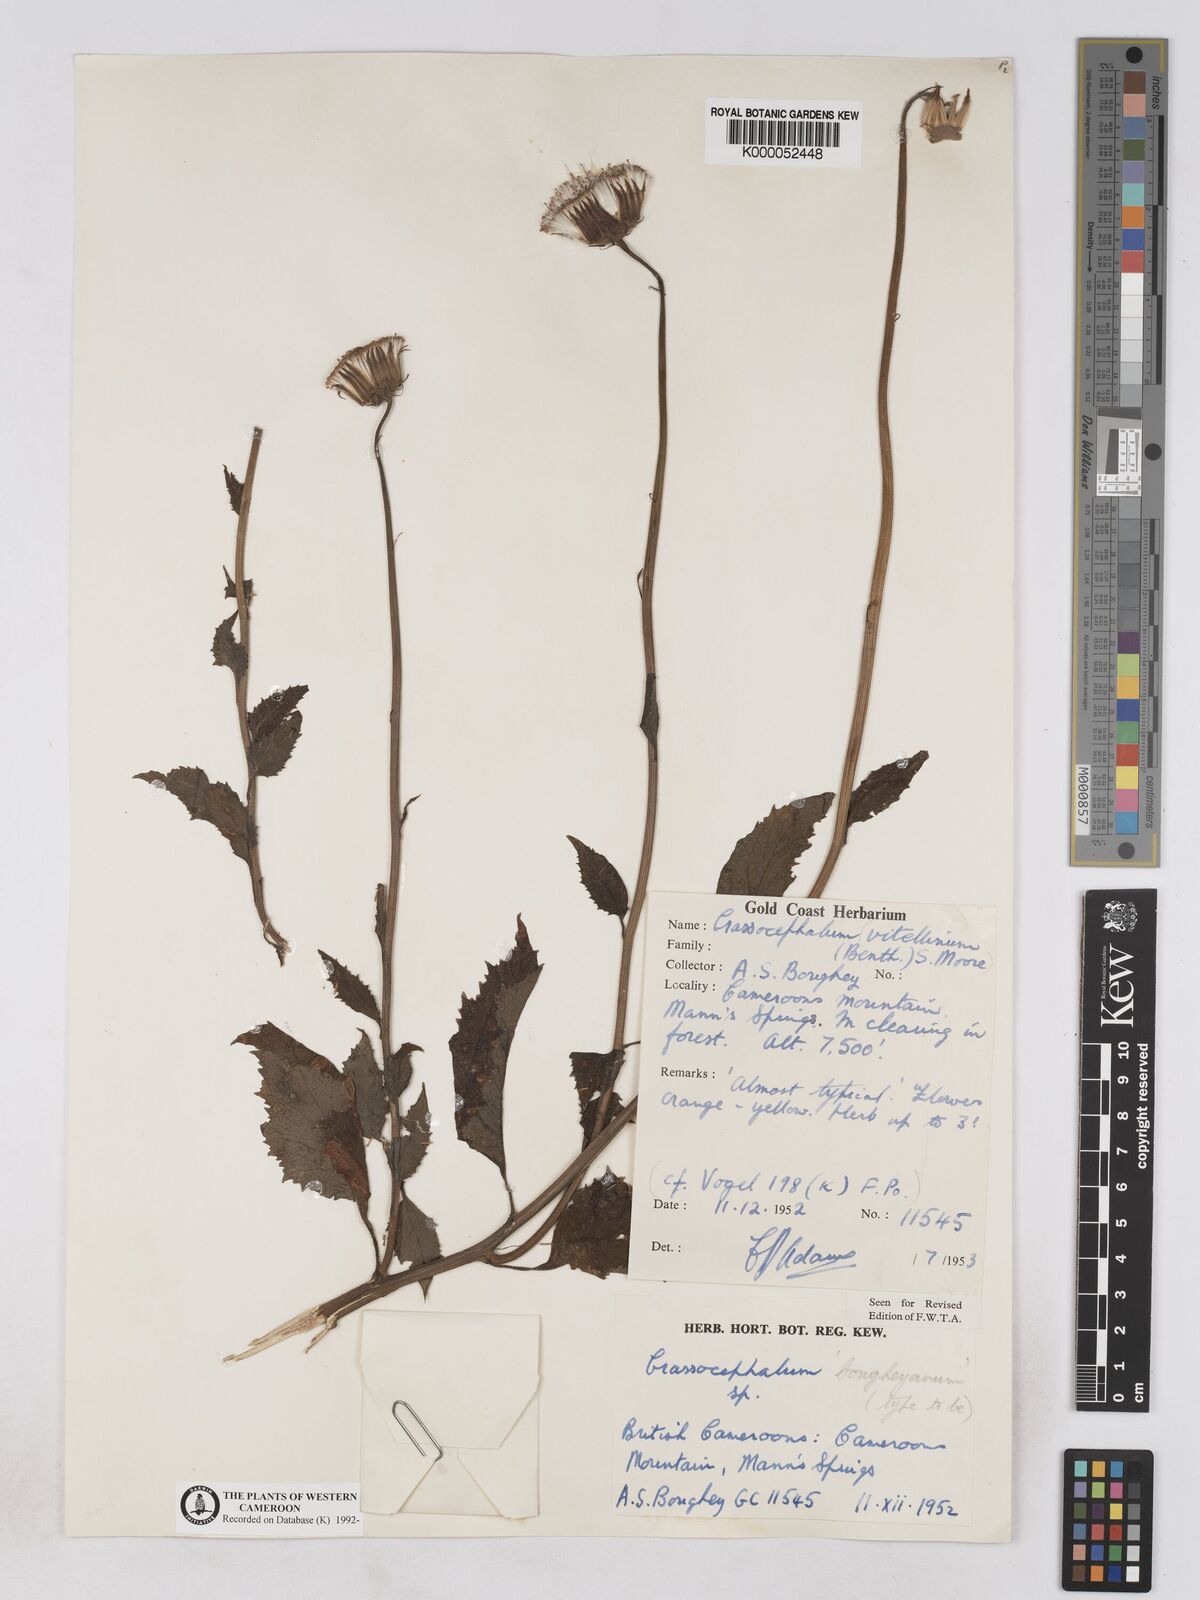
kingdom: Plantae
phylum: Tracheophyta
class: Magnoliopsida
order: Asterales
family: Asteraceae
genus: Crassocephalum
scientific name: Crassocephalum bougheyanum
